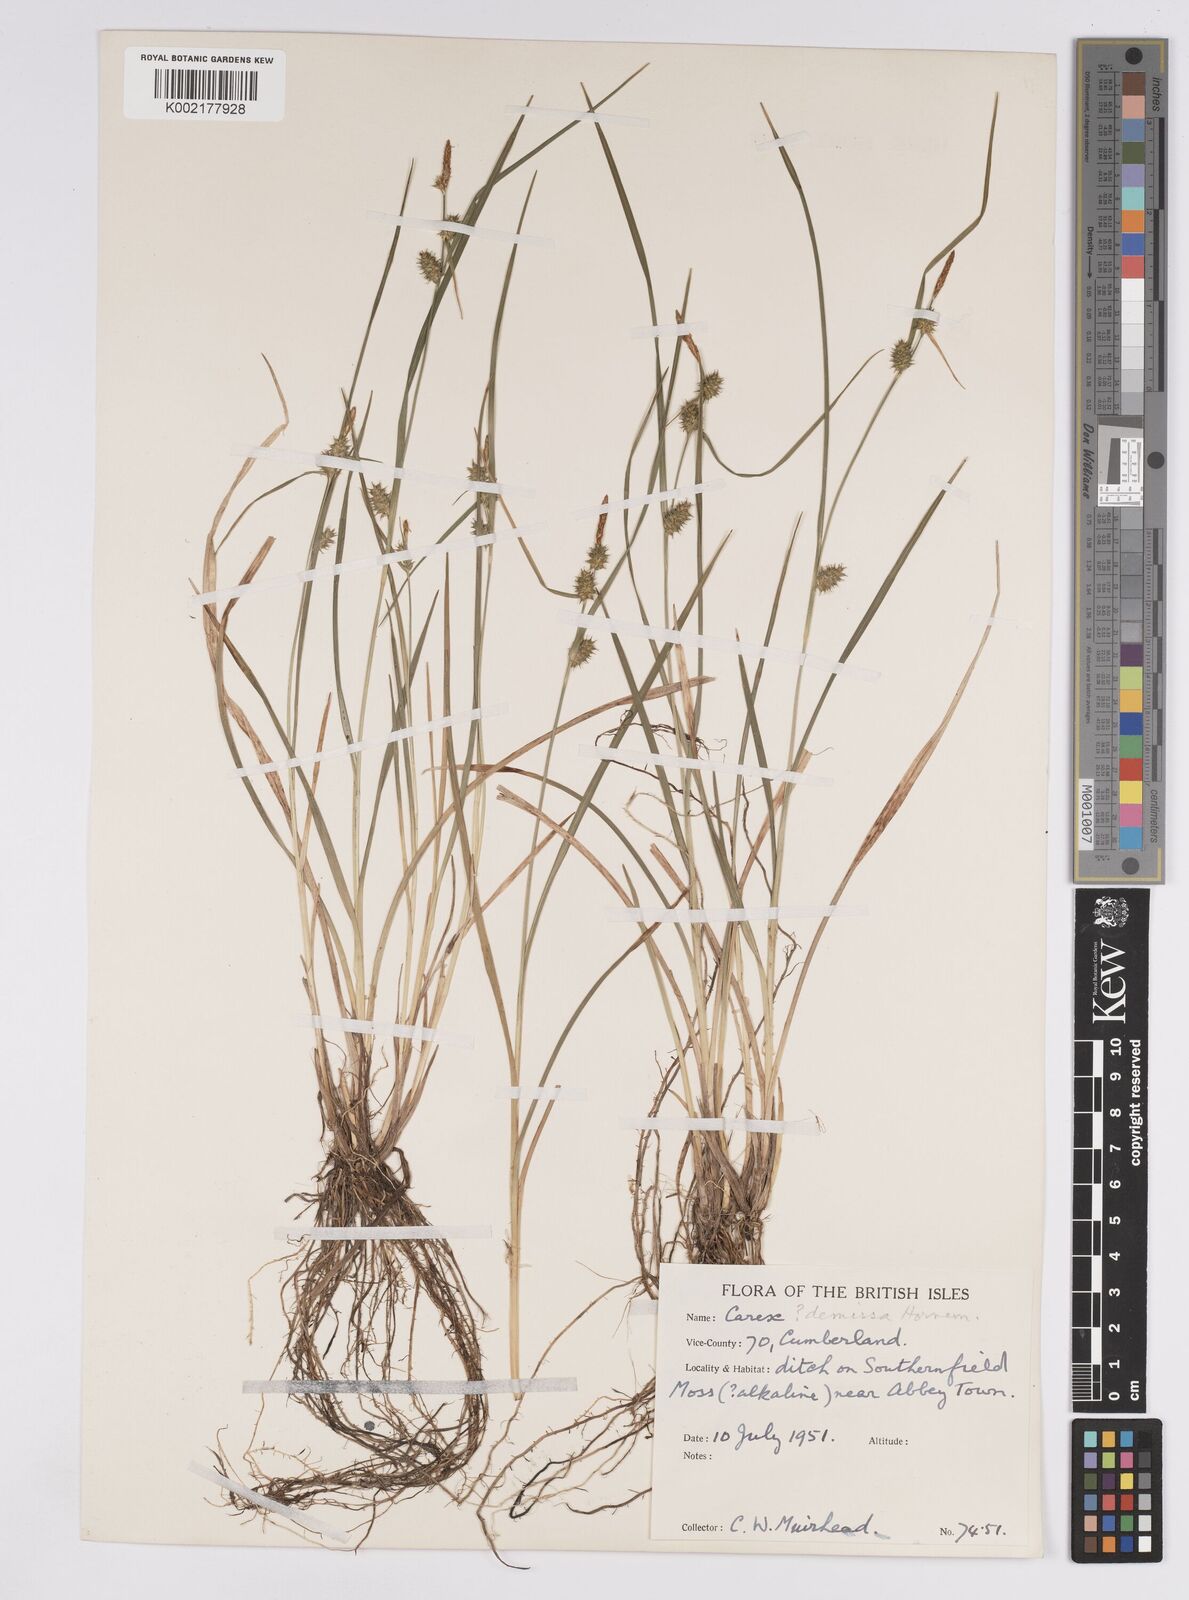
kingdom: Plantae
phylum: Tracheophyta
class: Liliopsida
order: Poales
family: Cyperaceae
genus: Carex
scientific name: Carex demissa
